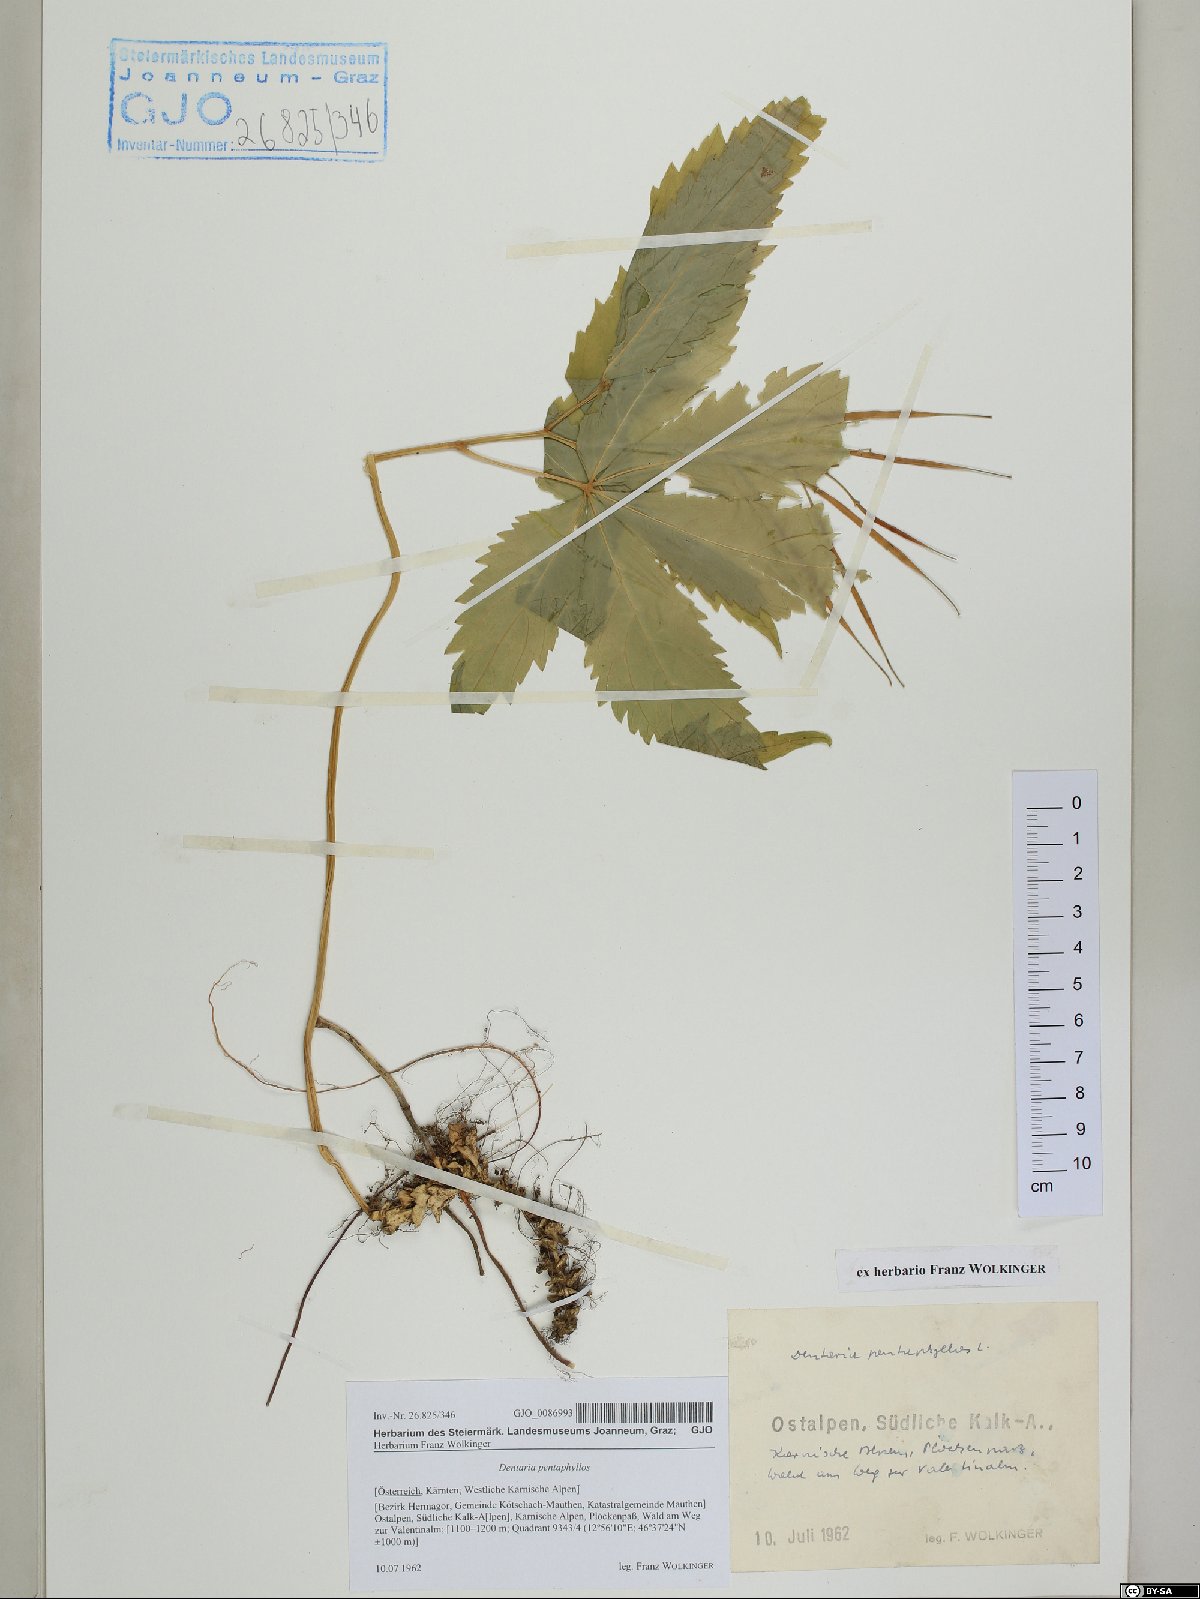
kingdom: Plantae
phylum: Tracheophyta
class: Magnoliopsida
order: Brassicales
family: Brassicaceae
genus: Cardamine
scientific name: Cardamine pentaphyllos
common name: Five-leaflet bitter-cress
